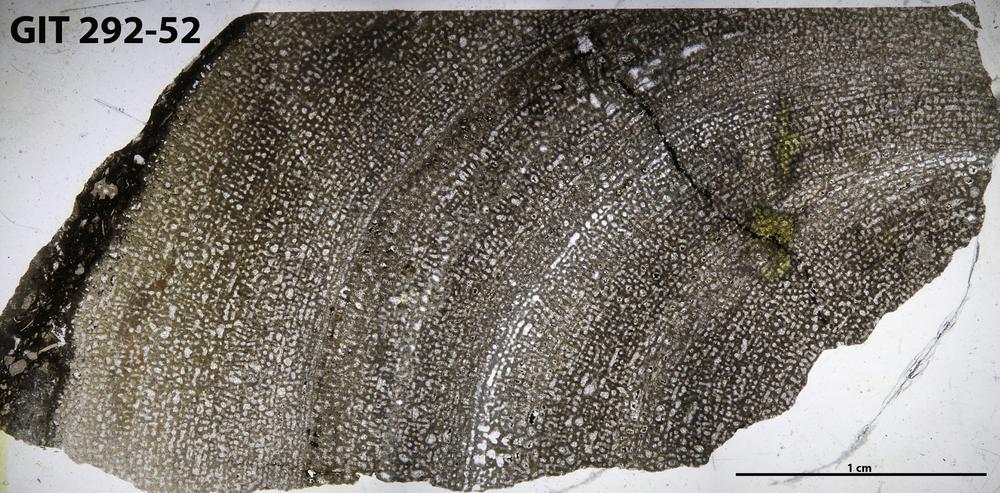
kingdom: Animalia
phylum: Porifera
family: Stromatoporidae
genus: Stromatopora
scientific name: Stromatopora
